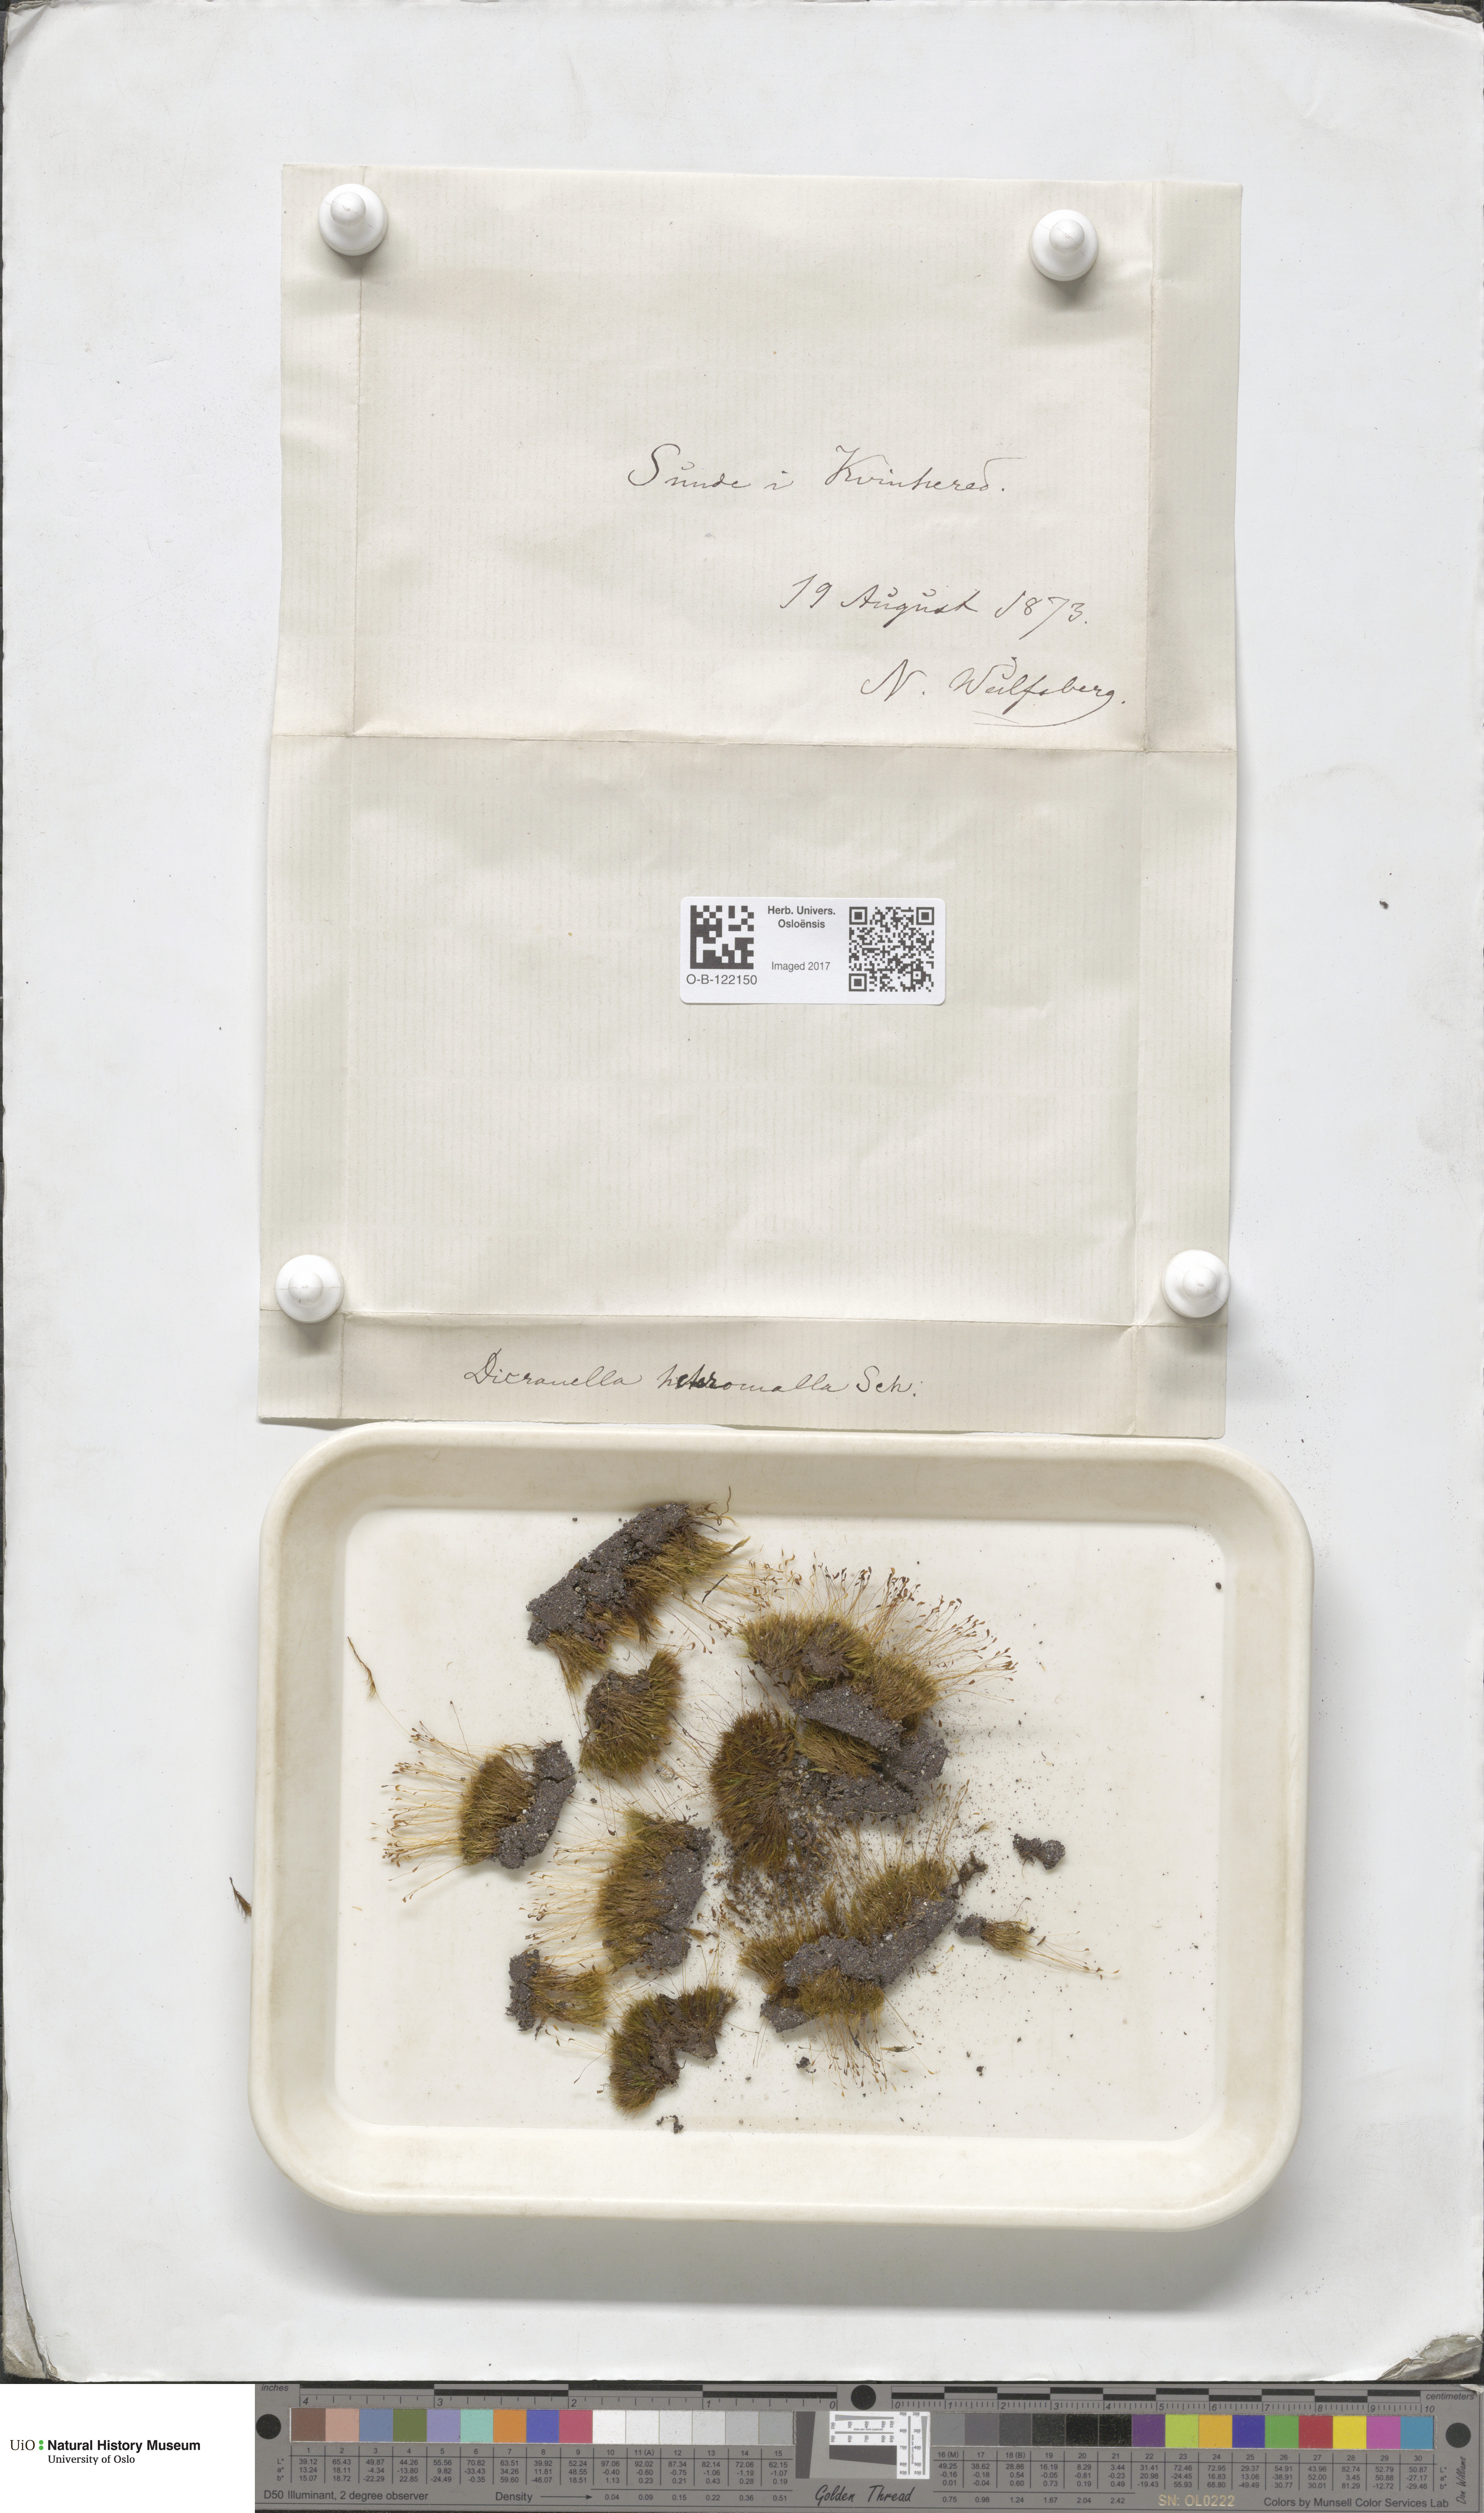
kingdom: Plantae
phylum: Bryophyta
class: Bryopsida
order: Dicranales
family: Dicranellaceae
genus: Dicranella
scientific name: Dicranella heteromalla
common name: Silky forklet moss
